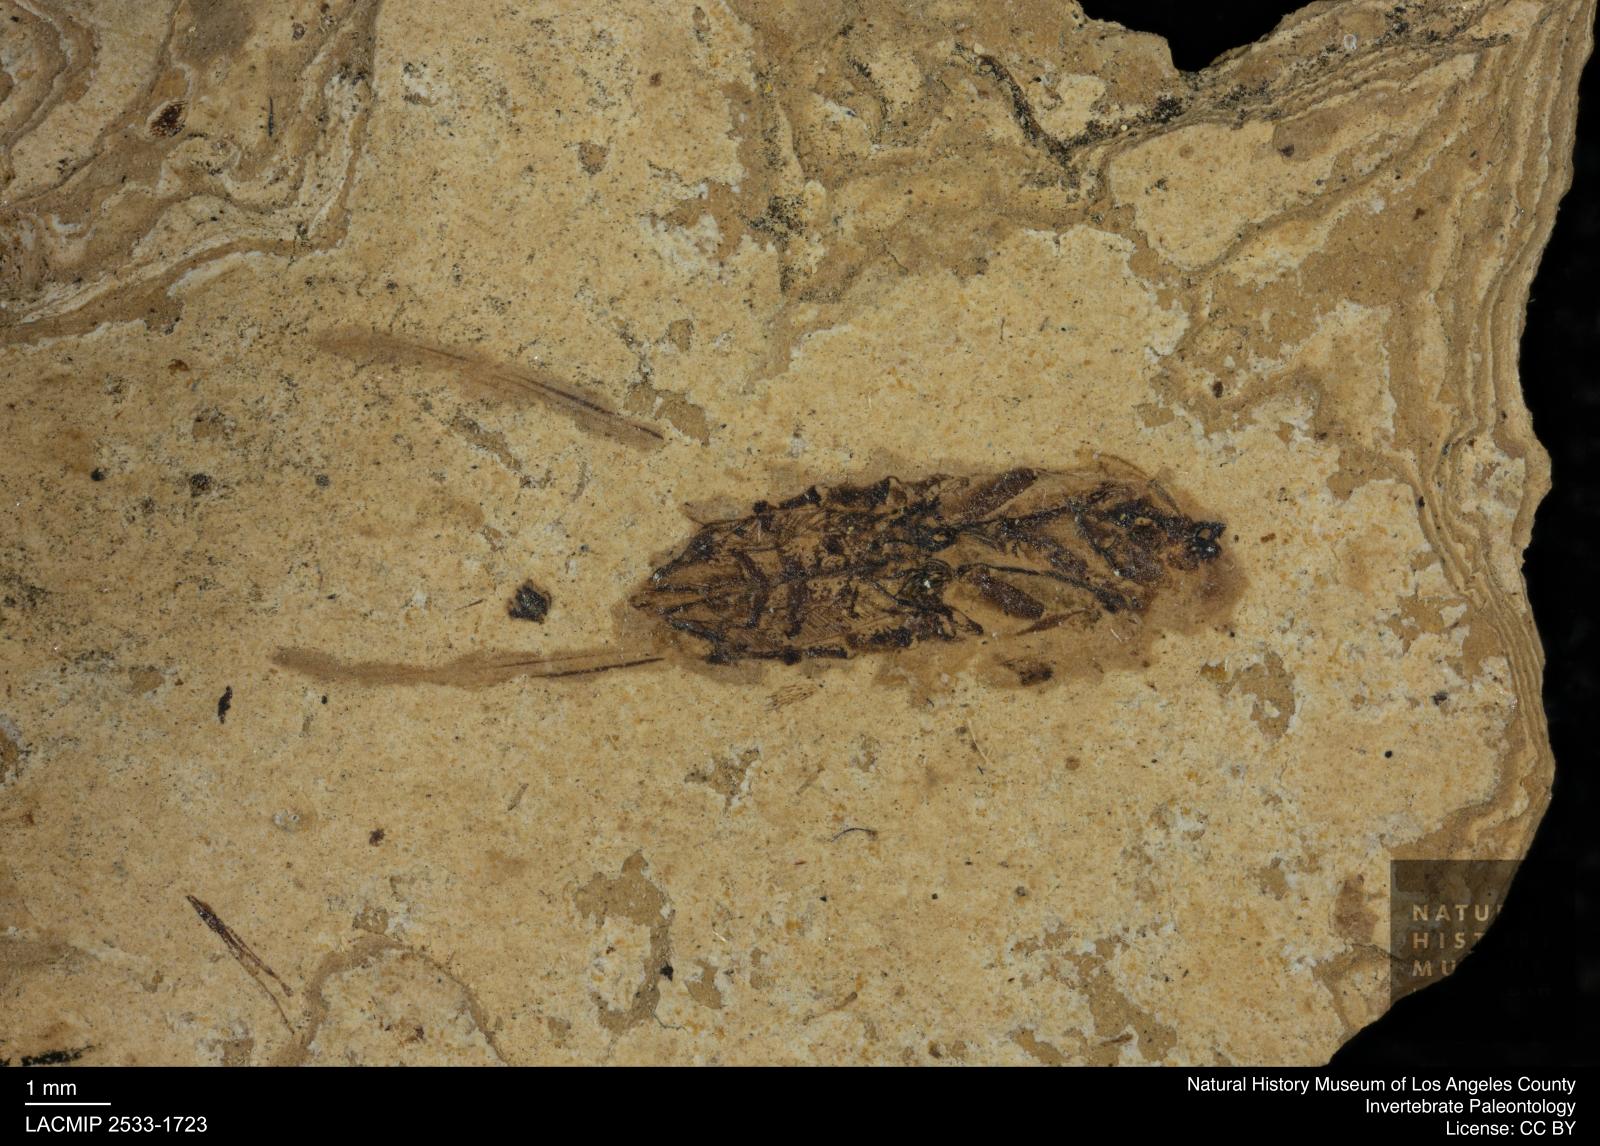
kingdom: Animalia
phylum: Arthropoda
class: Insecta
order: Hemiptera
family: Notonectidae
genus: Notonecta
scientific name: Notonecta
